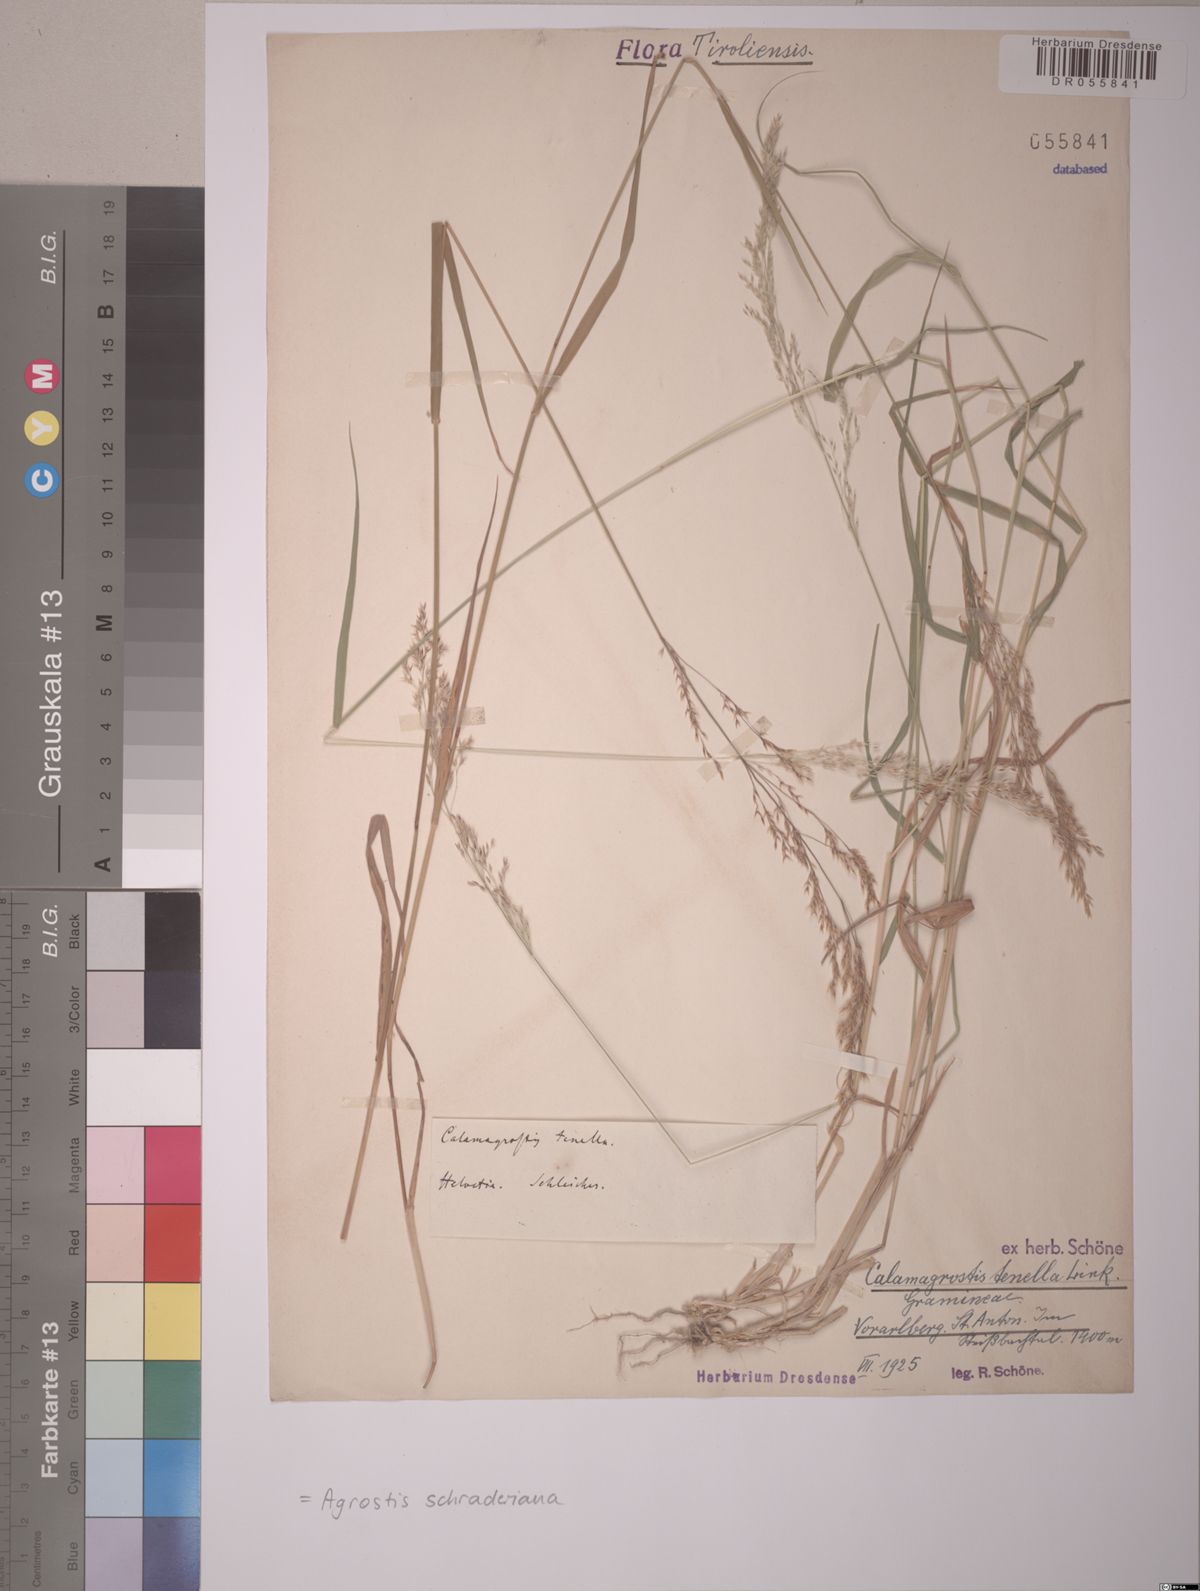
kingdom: Plantae
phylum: Tracheophyta
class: Liliopsida
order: Poales
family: Poaceae
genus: Agrostis
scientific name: Agrostis schraderiana
